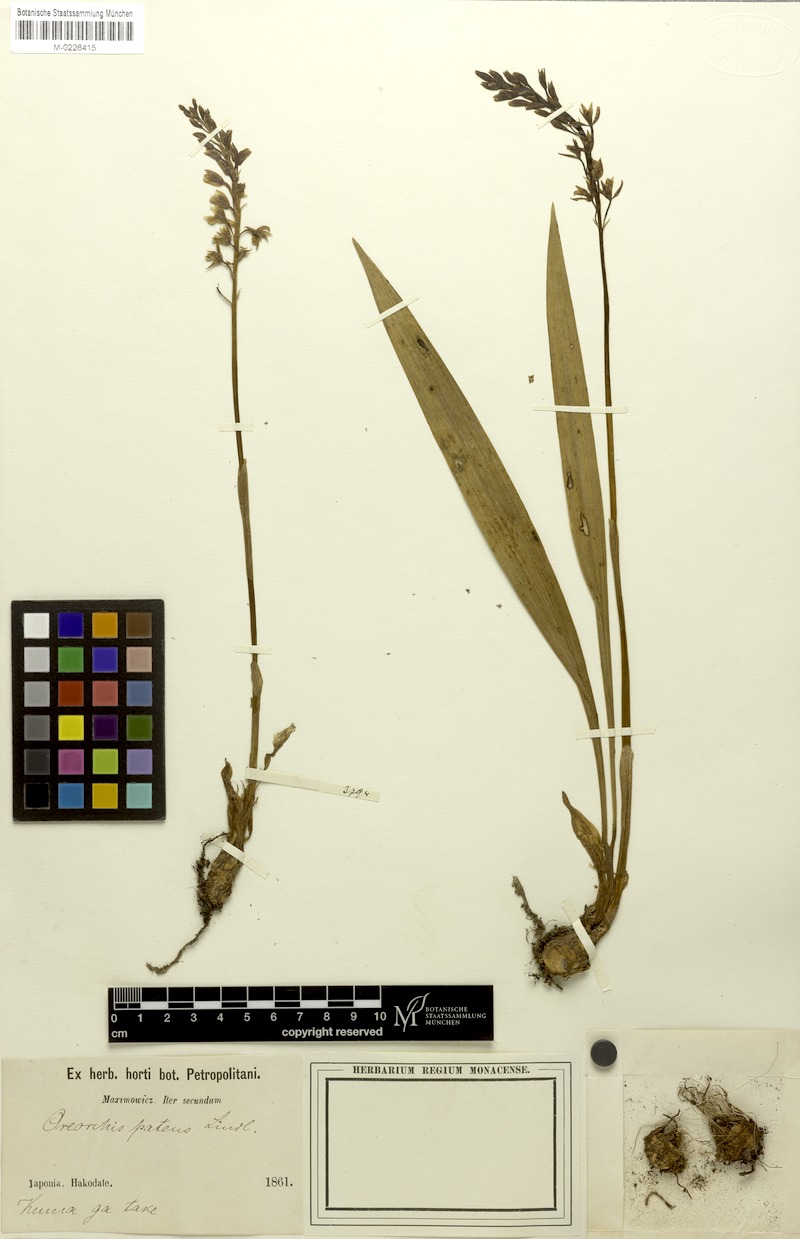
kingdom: Plantae
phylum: Tracheophyta
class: Liliopsida
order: Asparagales
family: Orchidaceae
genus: Oreorchis
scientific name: Oreorchis patens
